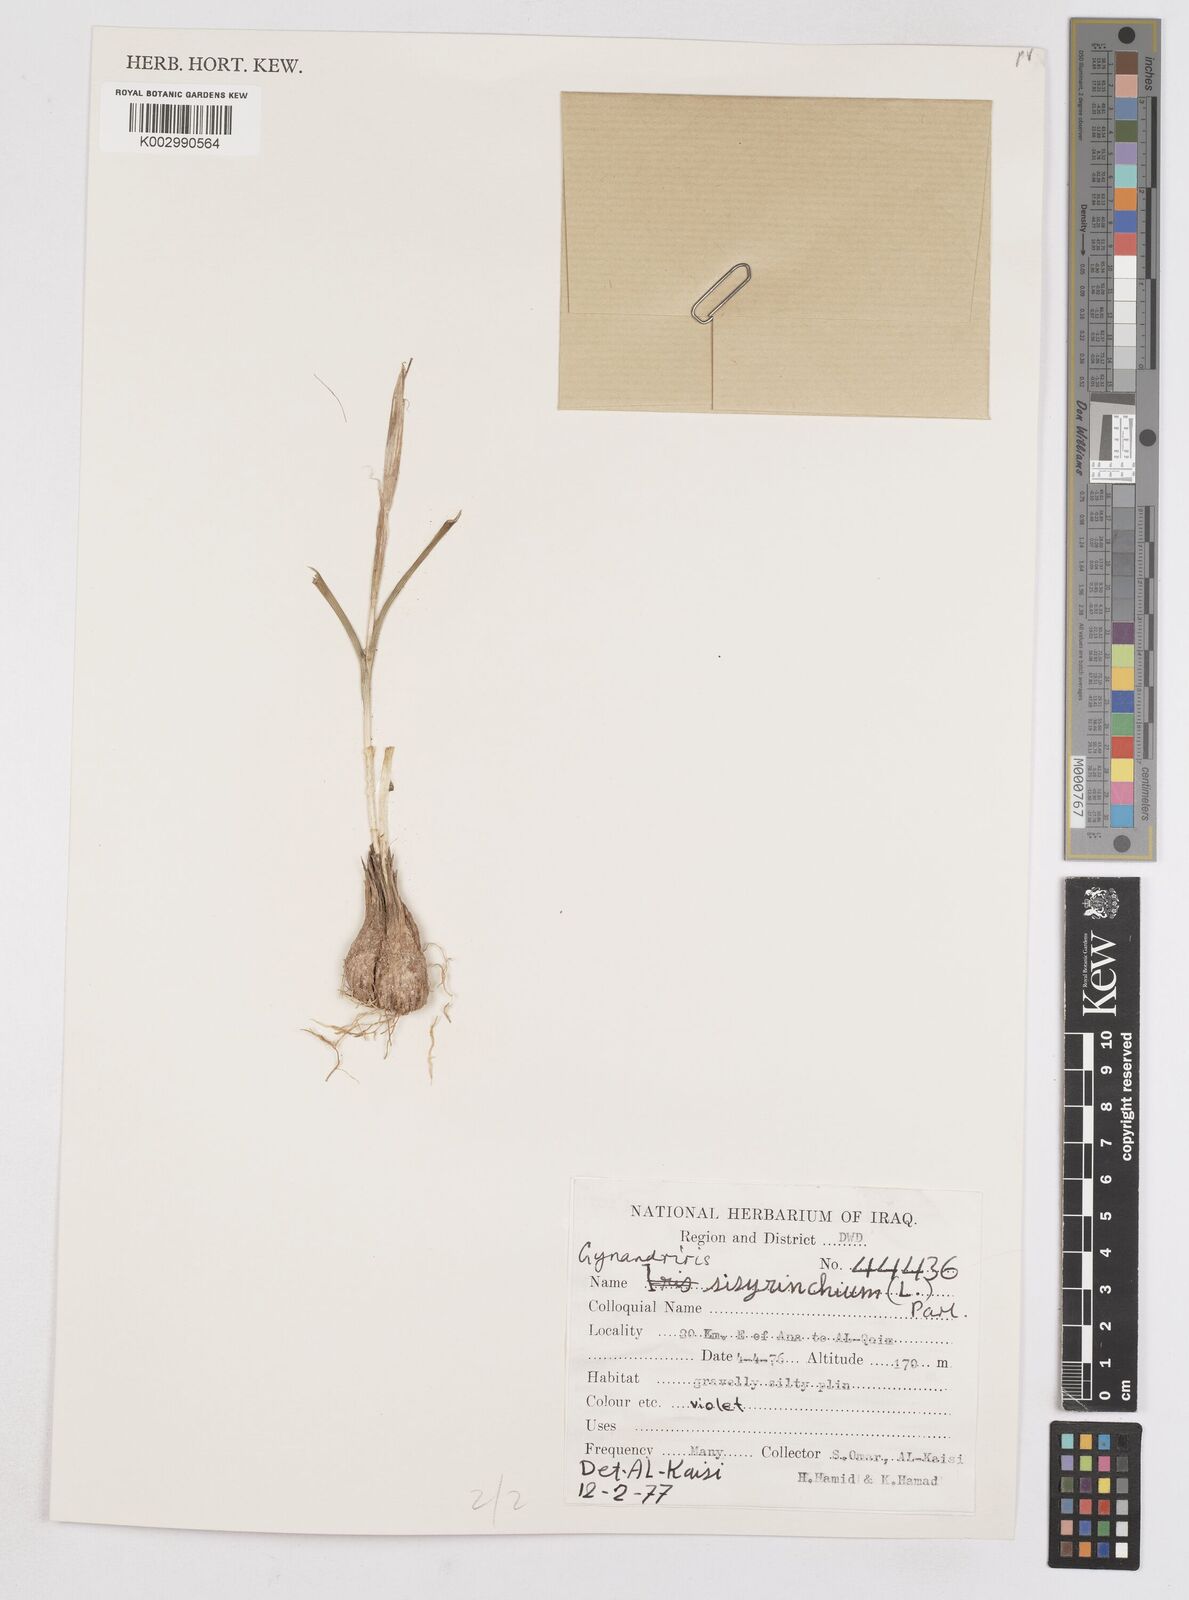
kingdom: Plantae
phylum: Tracheophyta
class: Liliopsida
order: Asparagales
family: Iridaceae
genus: Moraea
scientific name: Moraea sisyrinchium
